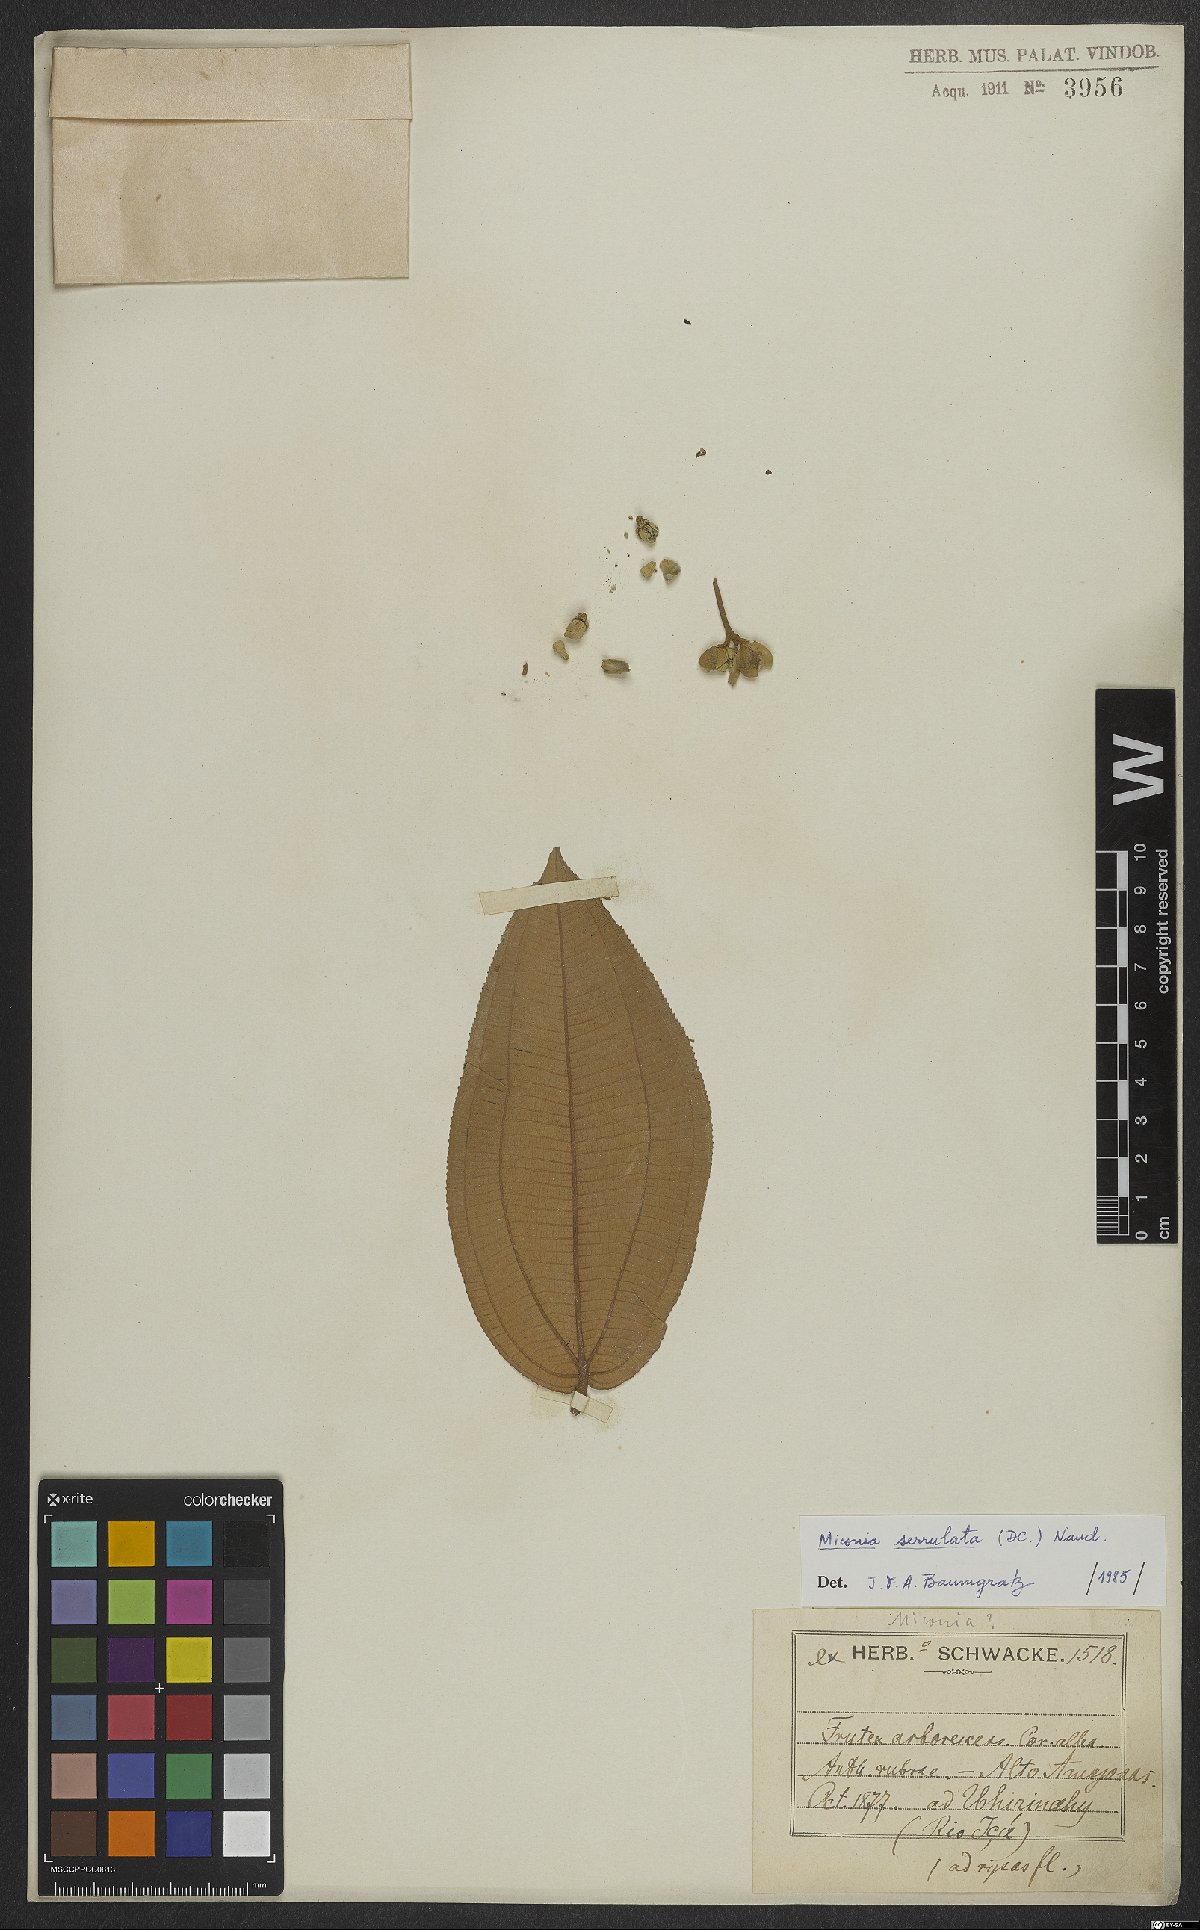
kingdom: Plantae
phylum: Tracheophyta
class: Magnoliopsida
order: Myrtales
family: Melastomataceae
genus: Miconia
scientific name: Miconia serrulata
